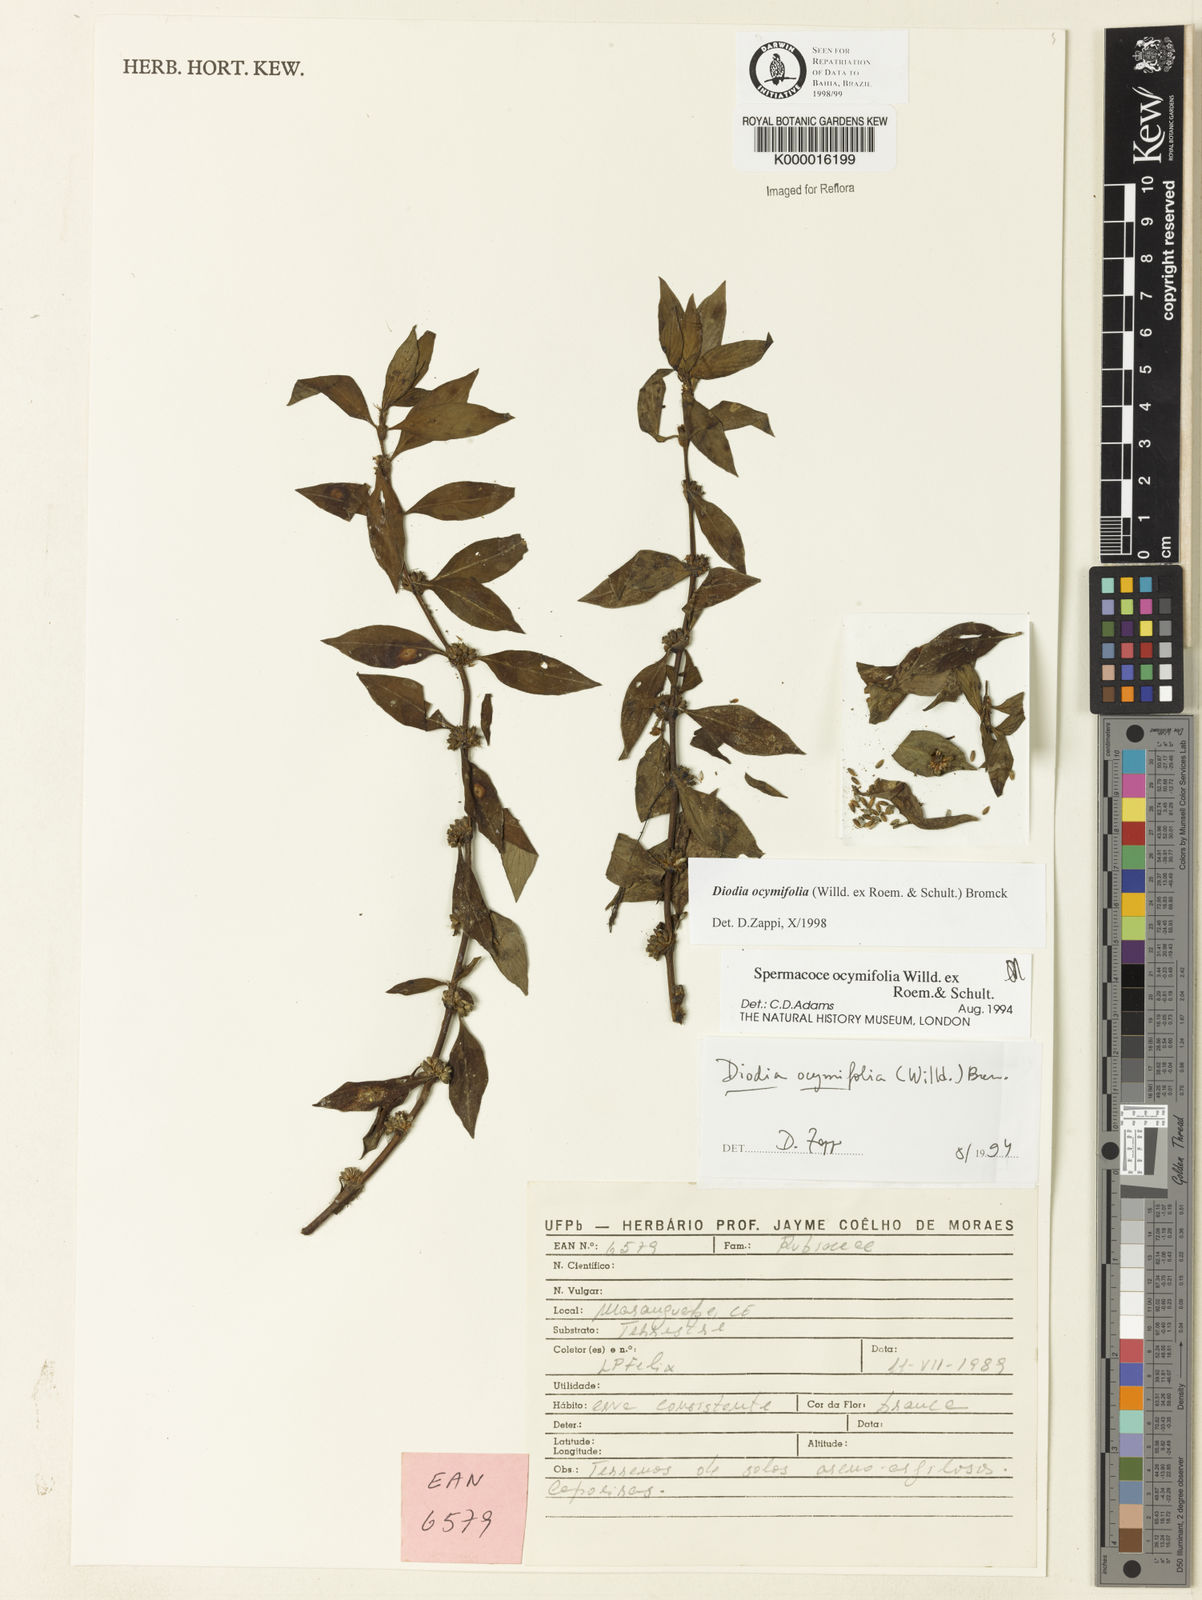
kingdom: Plantae
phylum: Tracheophyta
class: Magnoliopsida
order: Gentianales
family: Rubiaceae
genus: Spermacoce
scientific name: Spermacoce ocymifolia
